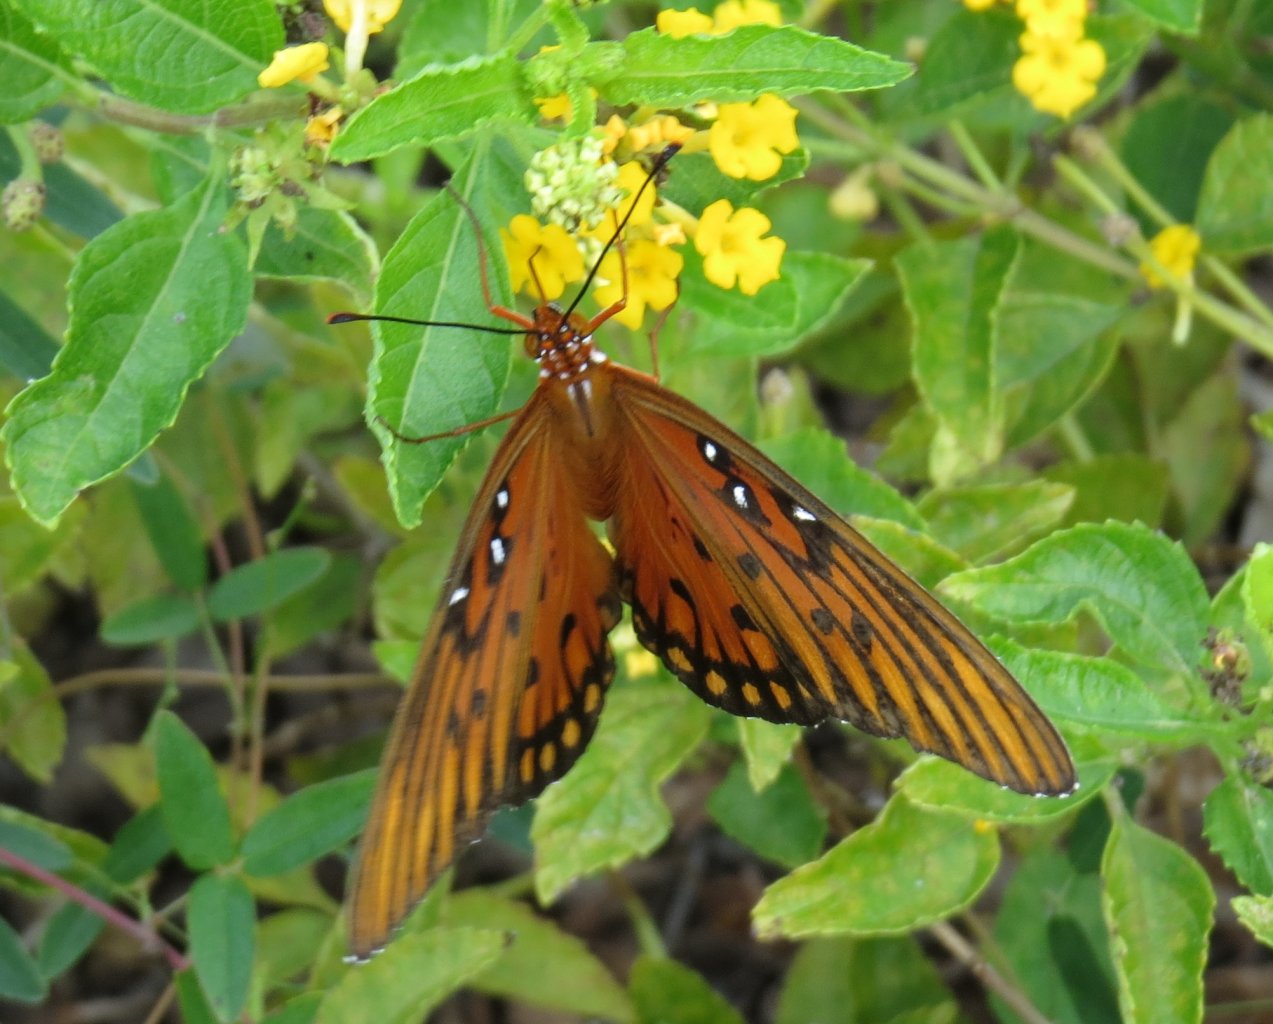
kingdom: Animalia
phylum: Arthropoda
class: Insecta
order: Lepidoptera
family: Nymphalidae
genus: Dione
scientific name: Dione vanillae
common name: Gulf Fritillary
